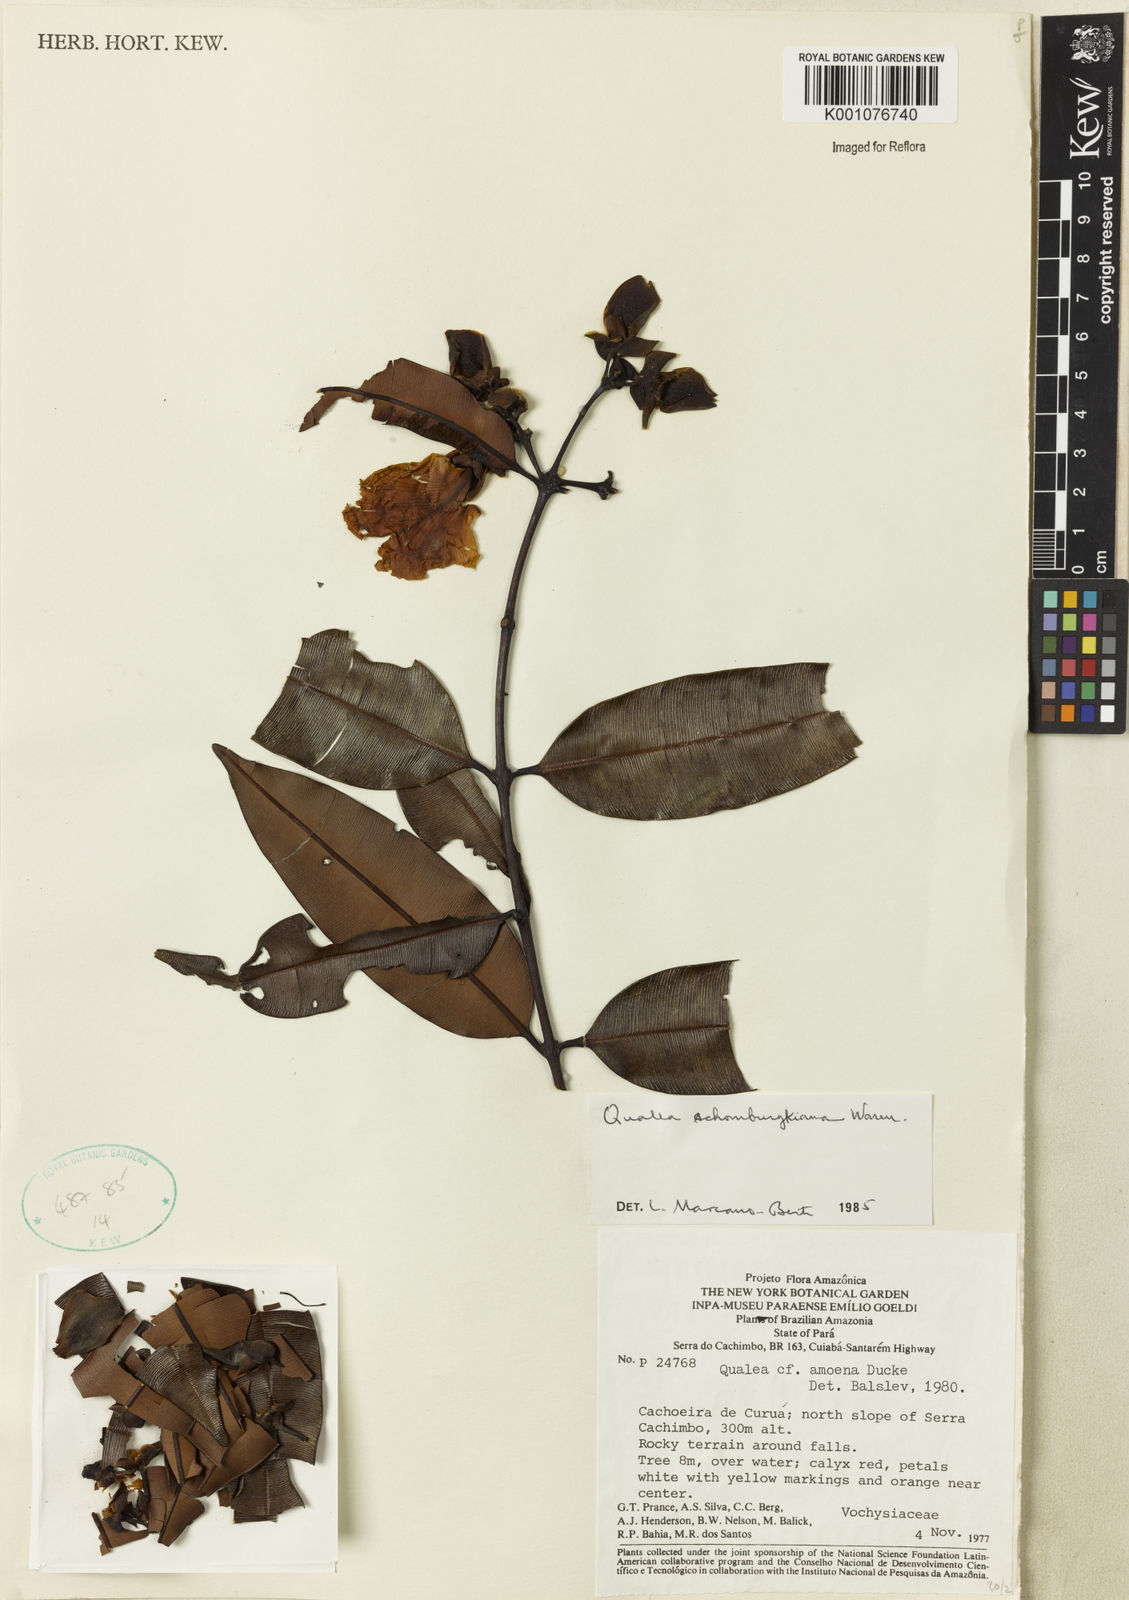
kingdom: Plantae
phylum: Tracheophyta
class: Magnoliopsida
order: Myrtales
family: Vochysiaceae
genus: Qualea
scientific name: Qualea schomburgkiana
